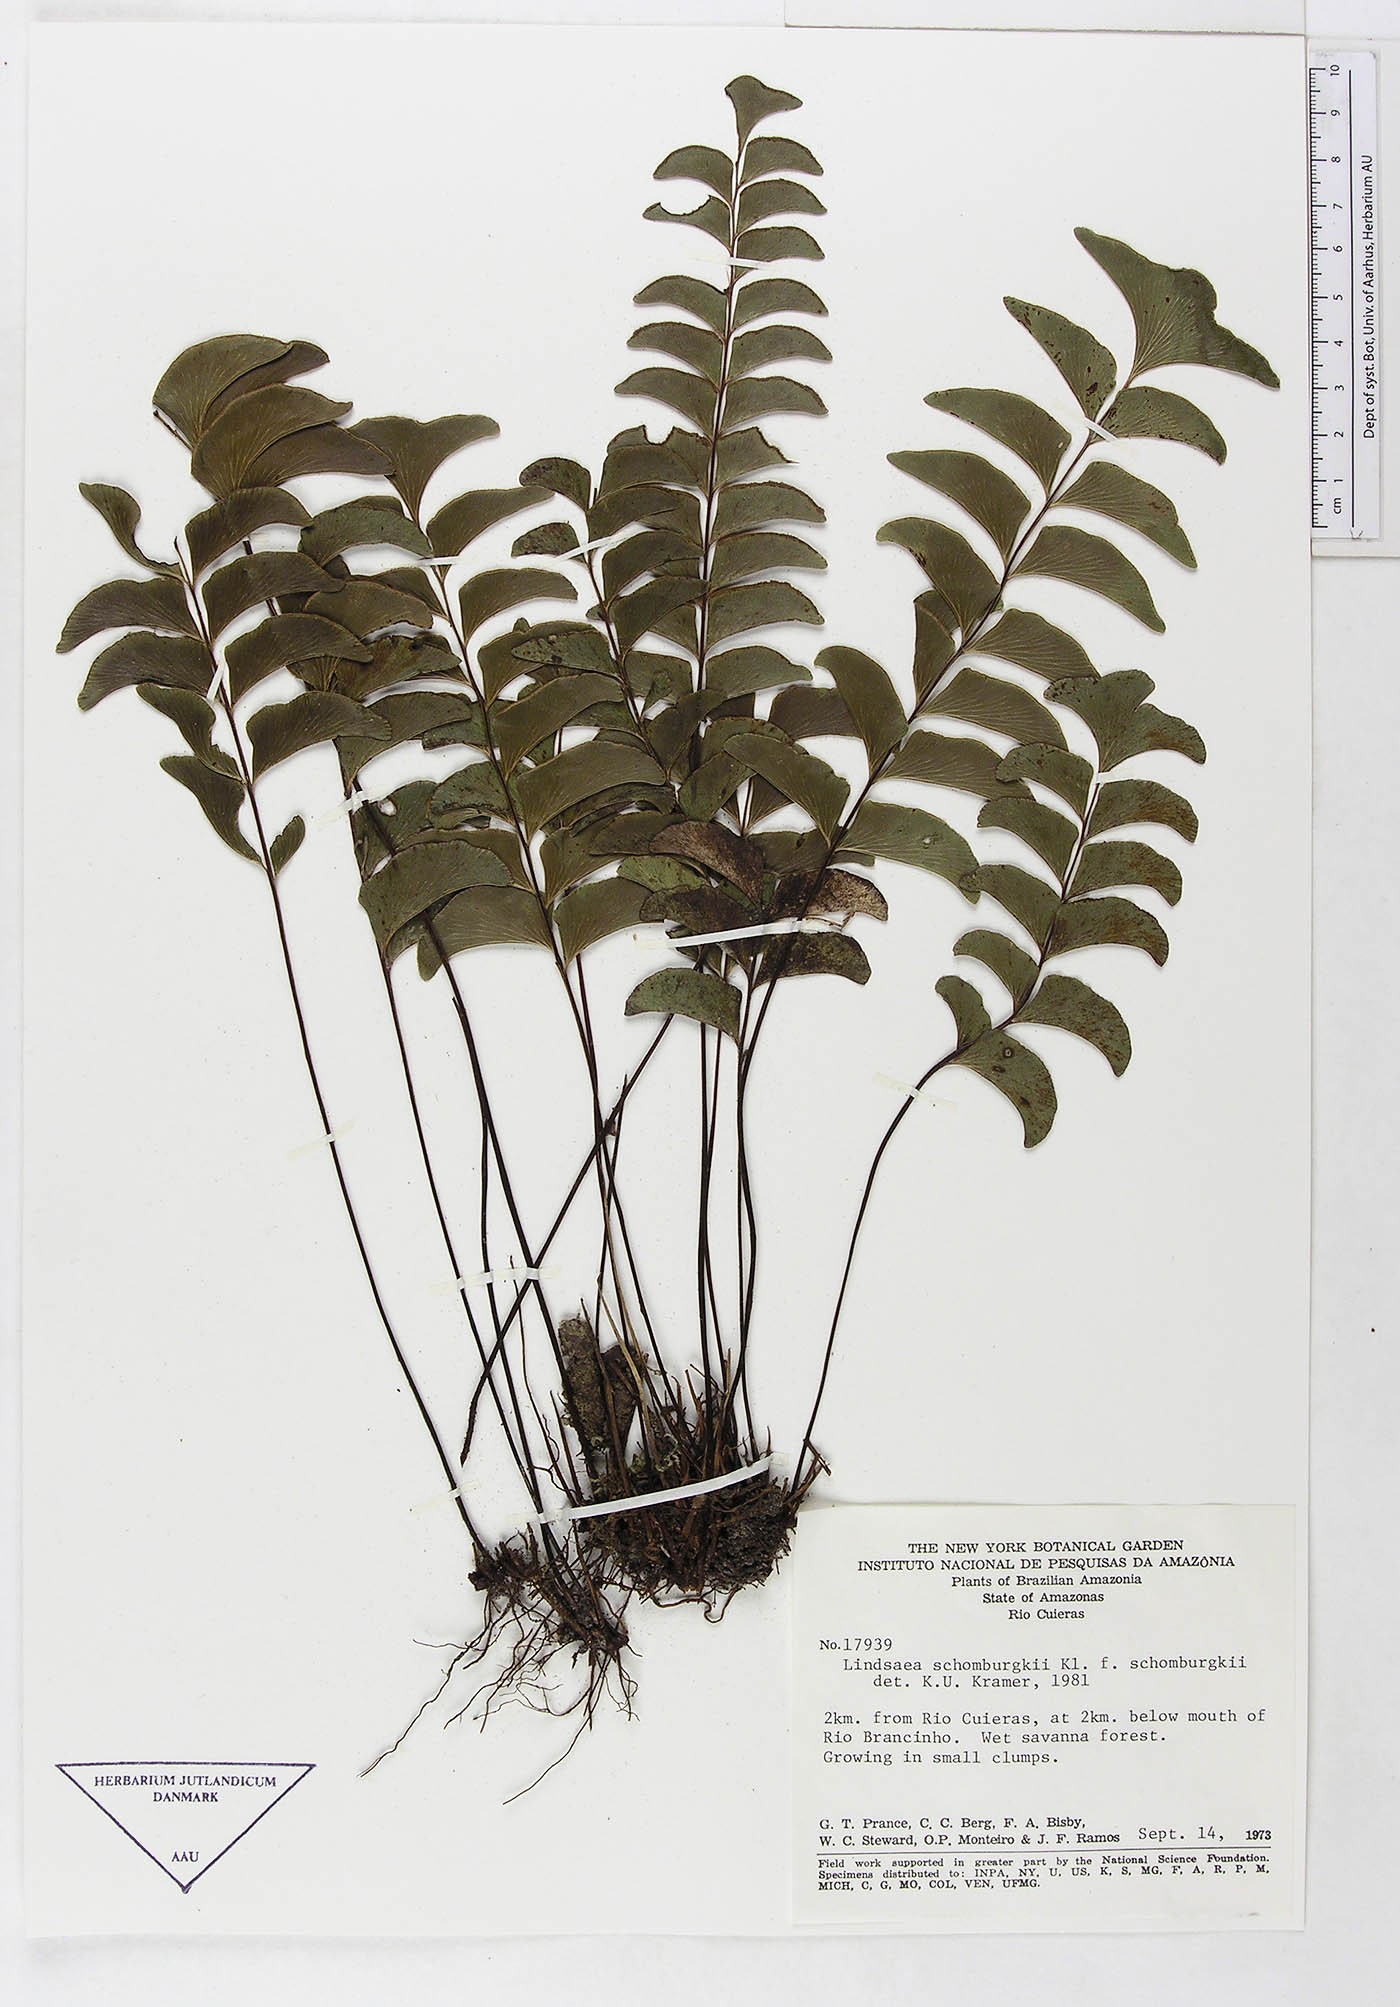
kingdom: Plantae
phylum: Tracheophyta
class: Polypodiopsida
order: Polypodiales
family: Dennstaedtiaceae
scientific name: Dennstaedtiaceae
